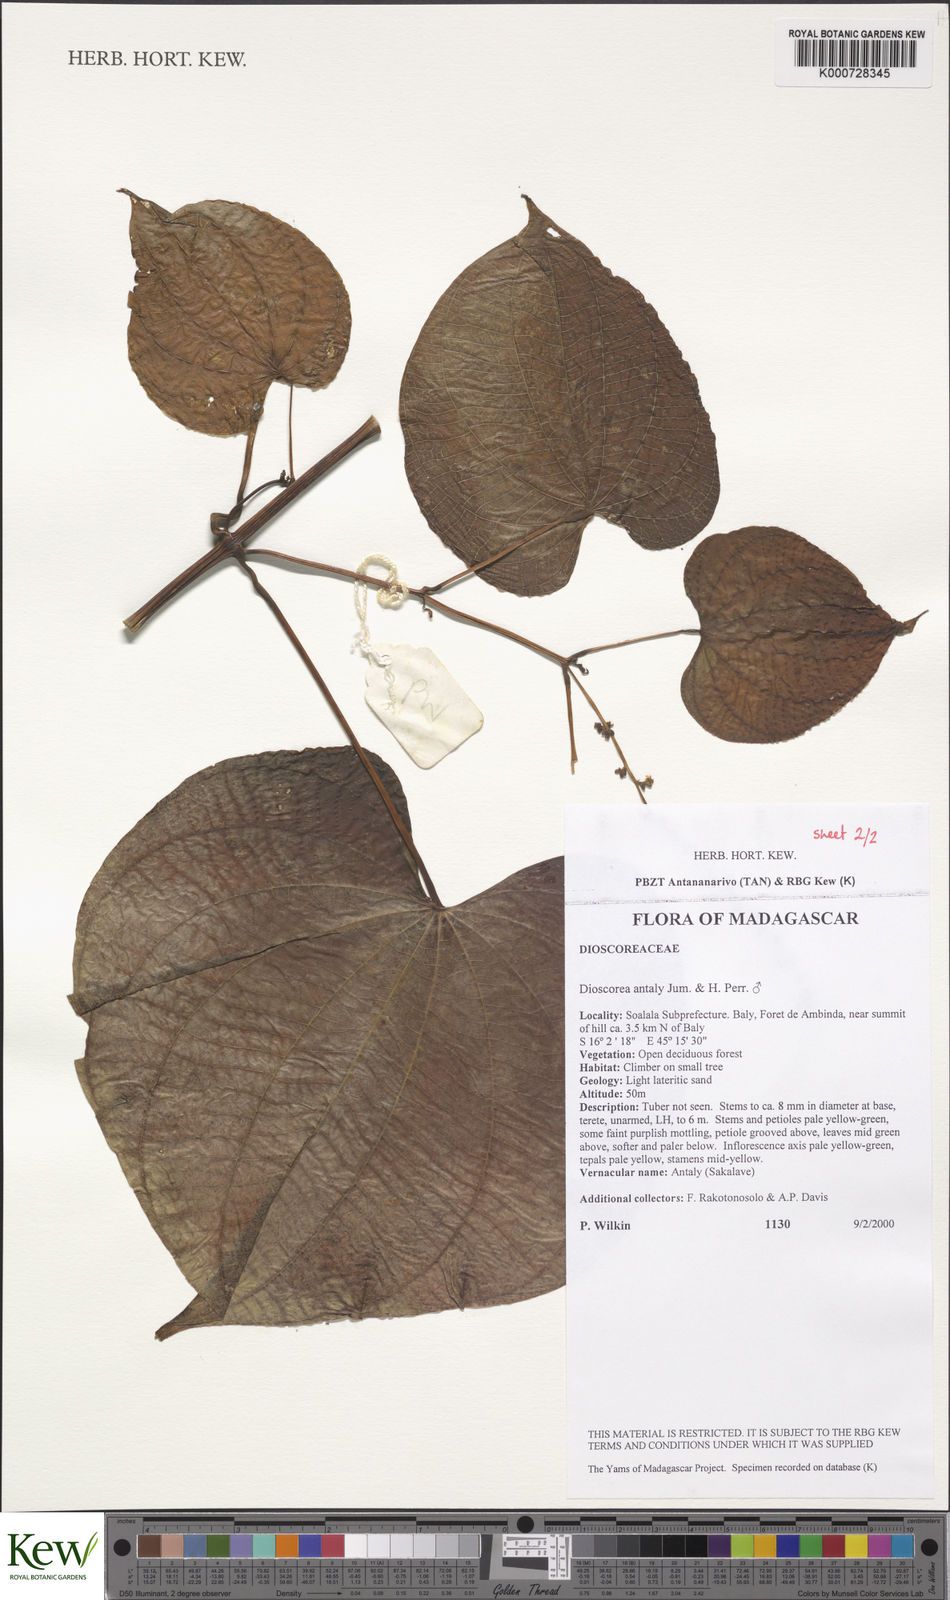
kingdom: Plantae
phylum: Tracheophyta
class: Liliopsida
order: Dioscoreales
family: Dioscoreaceae
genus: Dioscorea
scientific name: Dioscorea antaly
